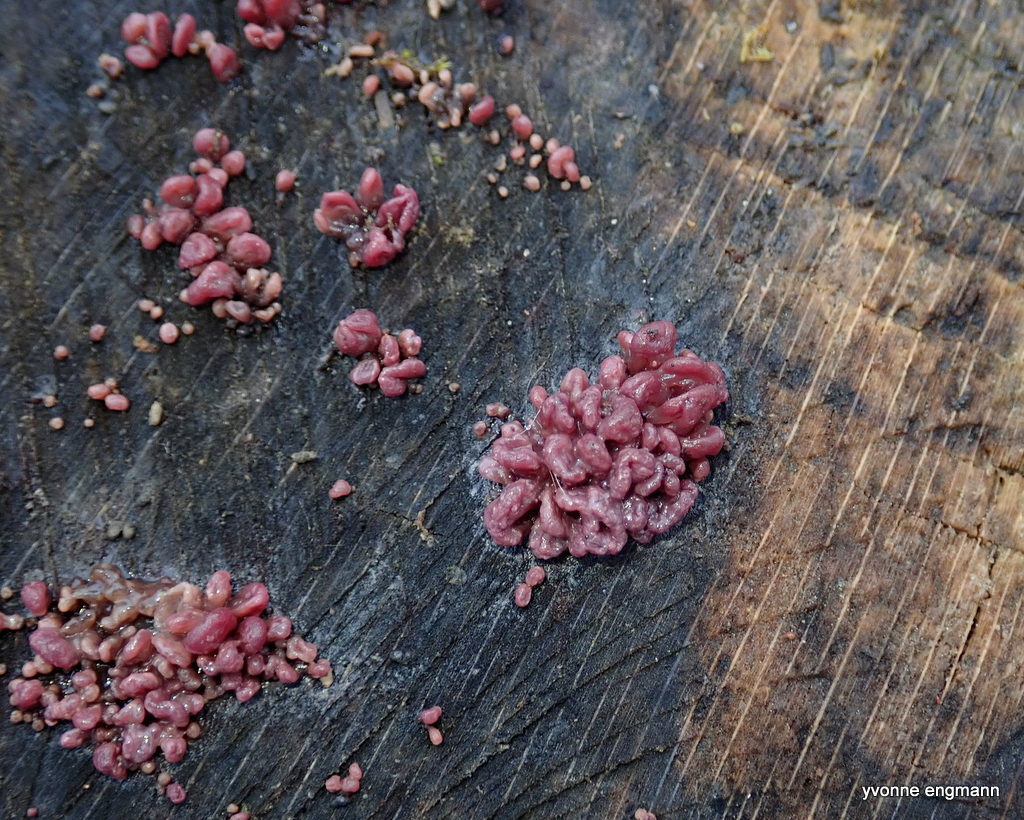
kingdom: Fungi
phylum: Ascomycota
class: Leotiomycetes
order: Helotiales
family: Gelatinodiscaceae
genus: Ascocoryne
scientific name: Ascocoryne sarcoides
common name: rødlilla sejskive
